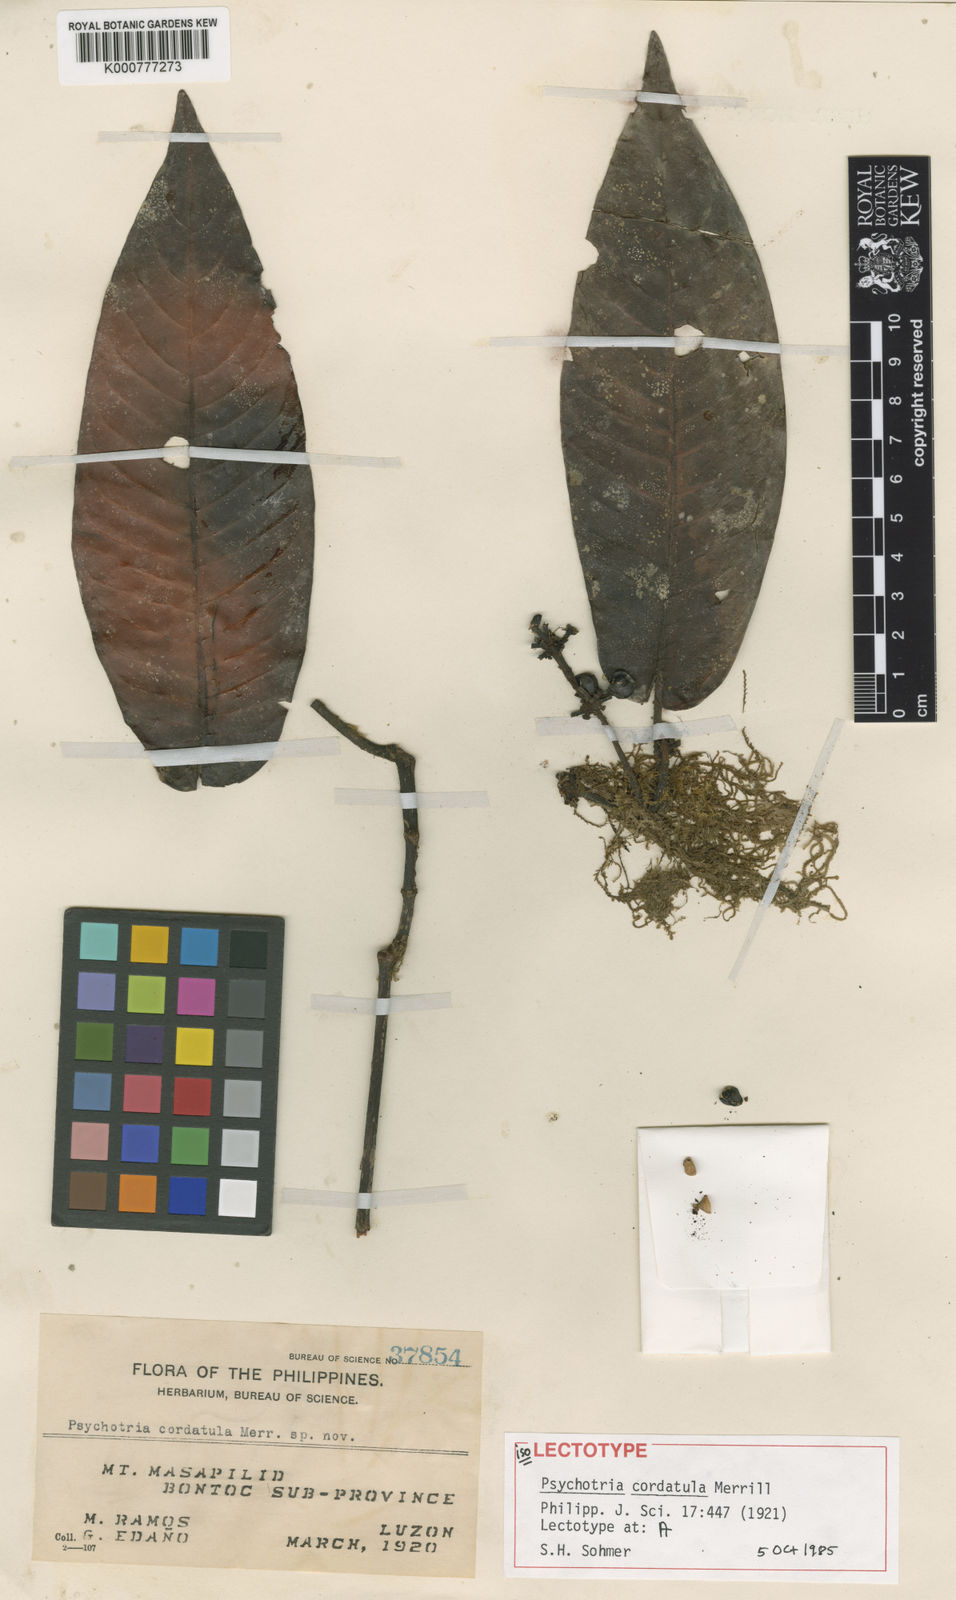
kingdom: Plantae
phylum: Tracheophyta
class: Magnoliopsida
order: Gentianales
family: Rubiaceae
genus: Psychotria
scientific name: Psychotria cordatula
